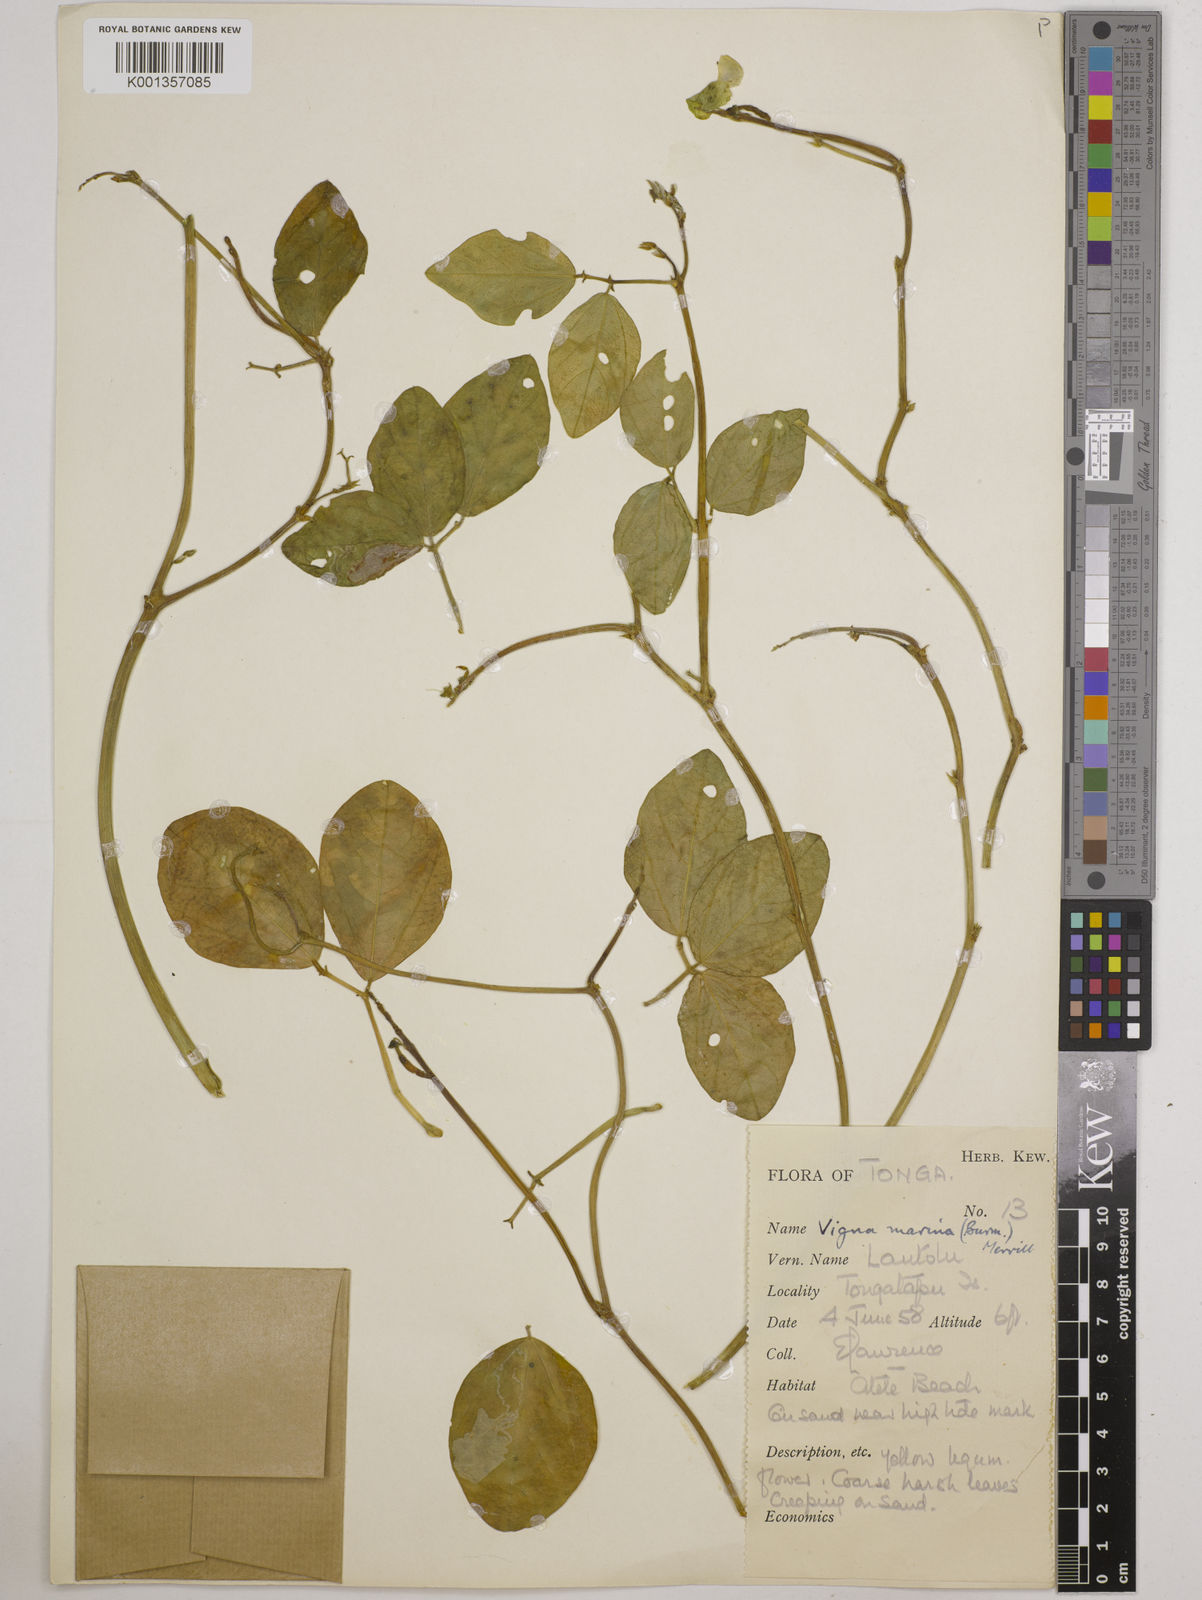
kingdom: Plantae
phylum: Tracheophyta
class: Magnoliopsida
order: Fabales
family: Fabaceae
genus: Vigna
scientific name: Vigna marina
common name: Dune-bean
